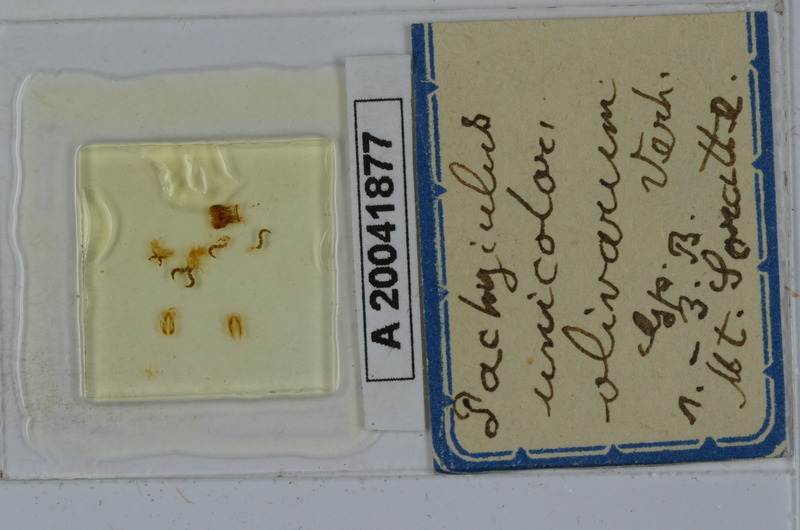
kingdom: Animalia
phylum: Arthropoda
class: Diplopoda
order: Julida
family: Julidae
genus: Pachyiulus
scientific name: Pachyiulus unicolor
